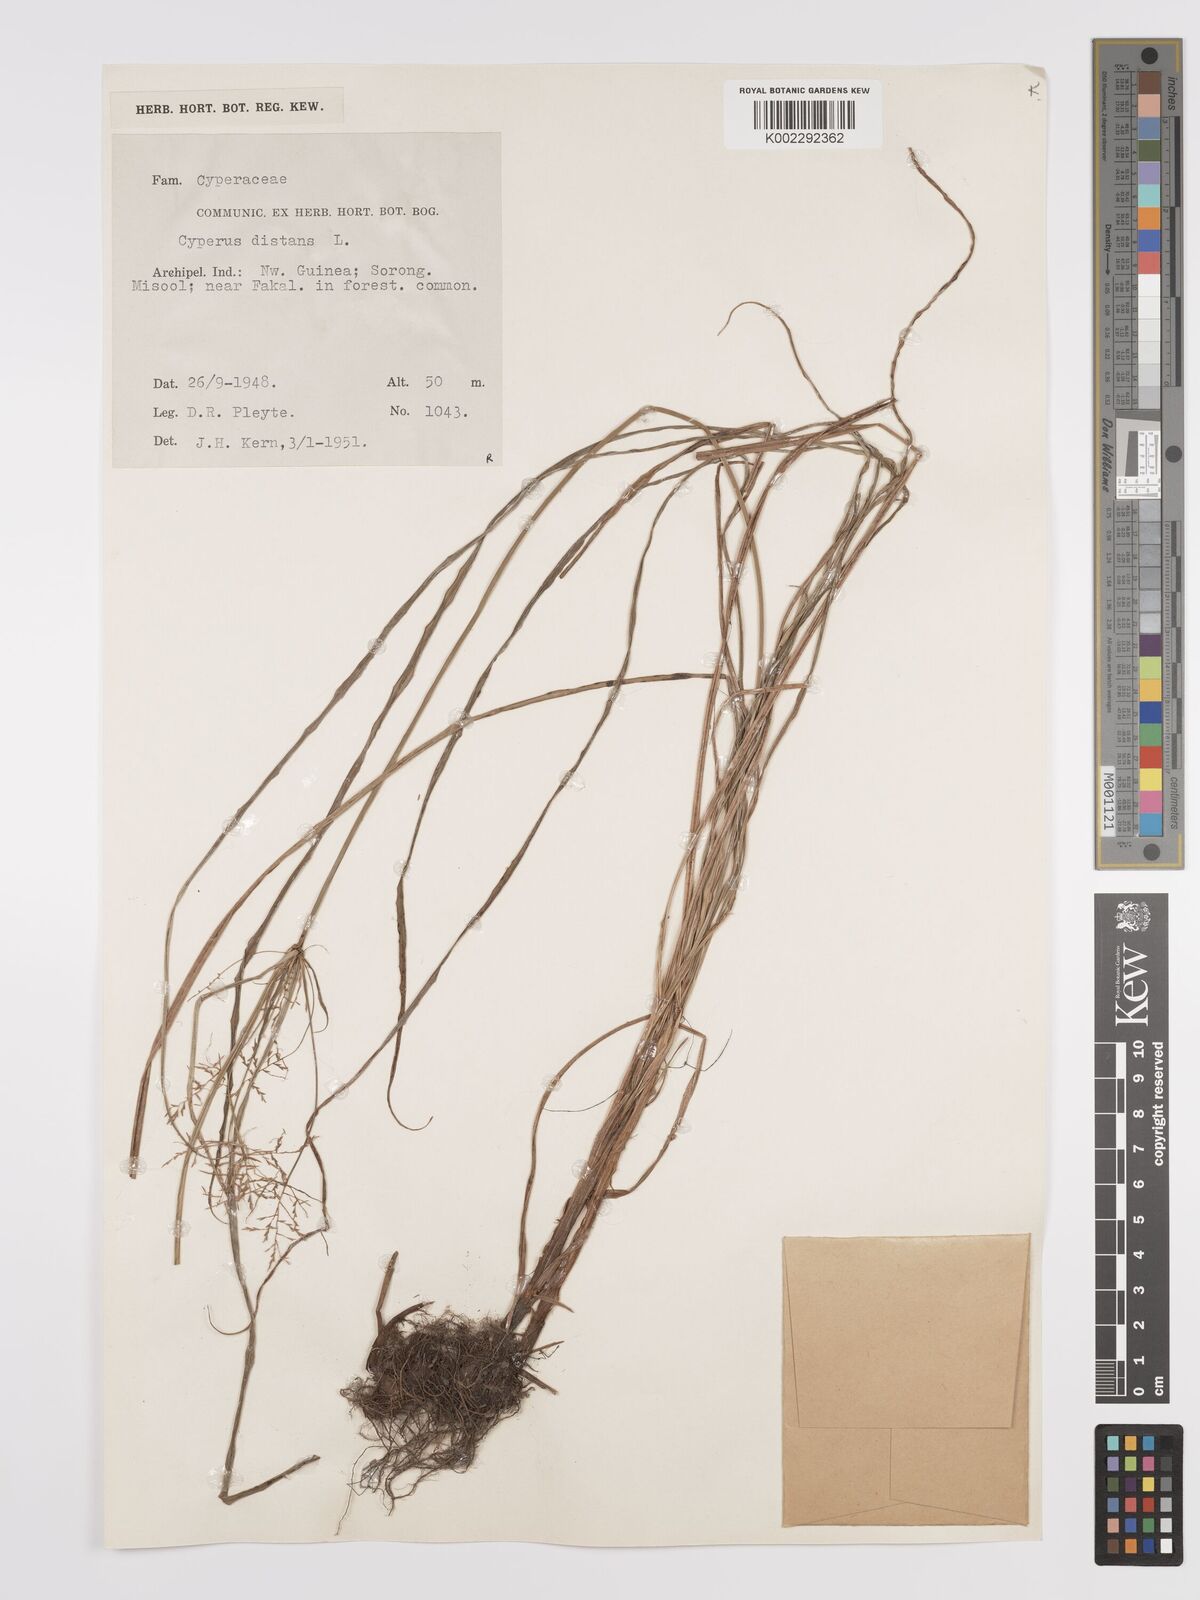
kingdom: Plantae
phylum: Tracheophyta
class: Liliopsida
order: Poales
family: Cyperaceae
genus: Cyperus
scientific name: Cyperus distans
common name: Slender cyperus
